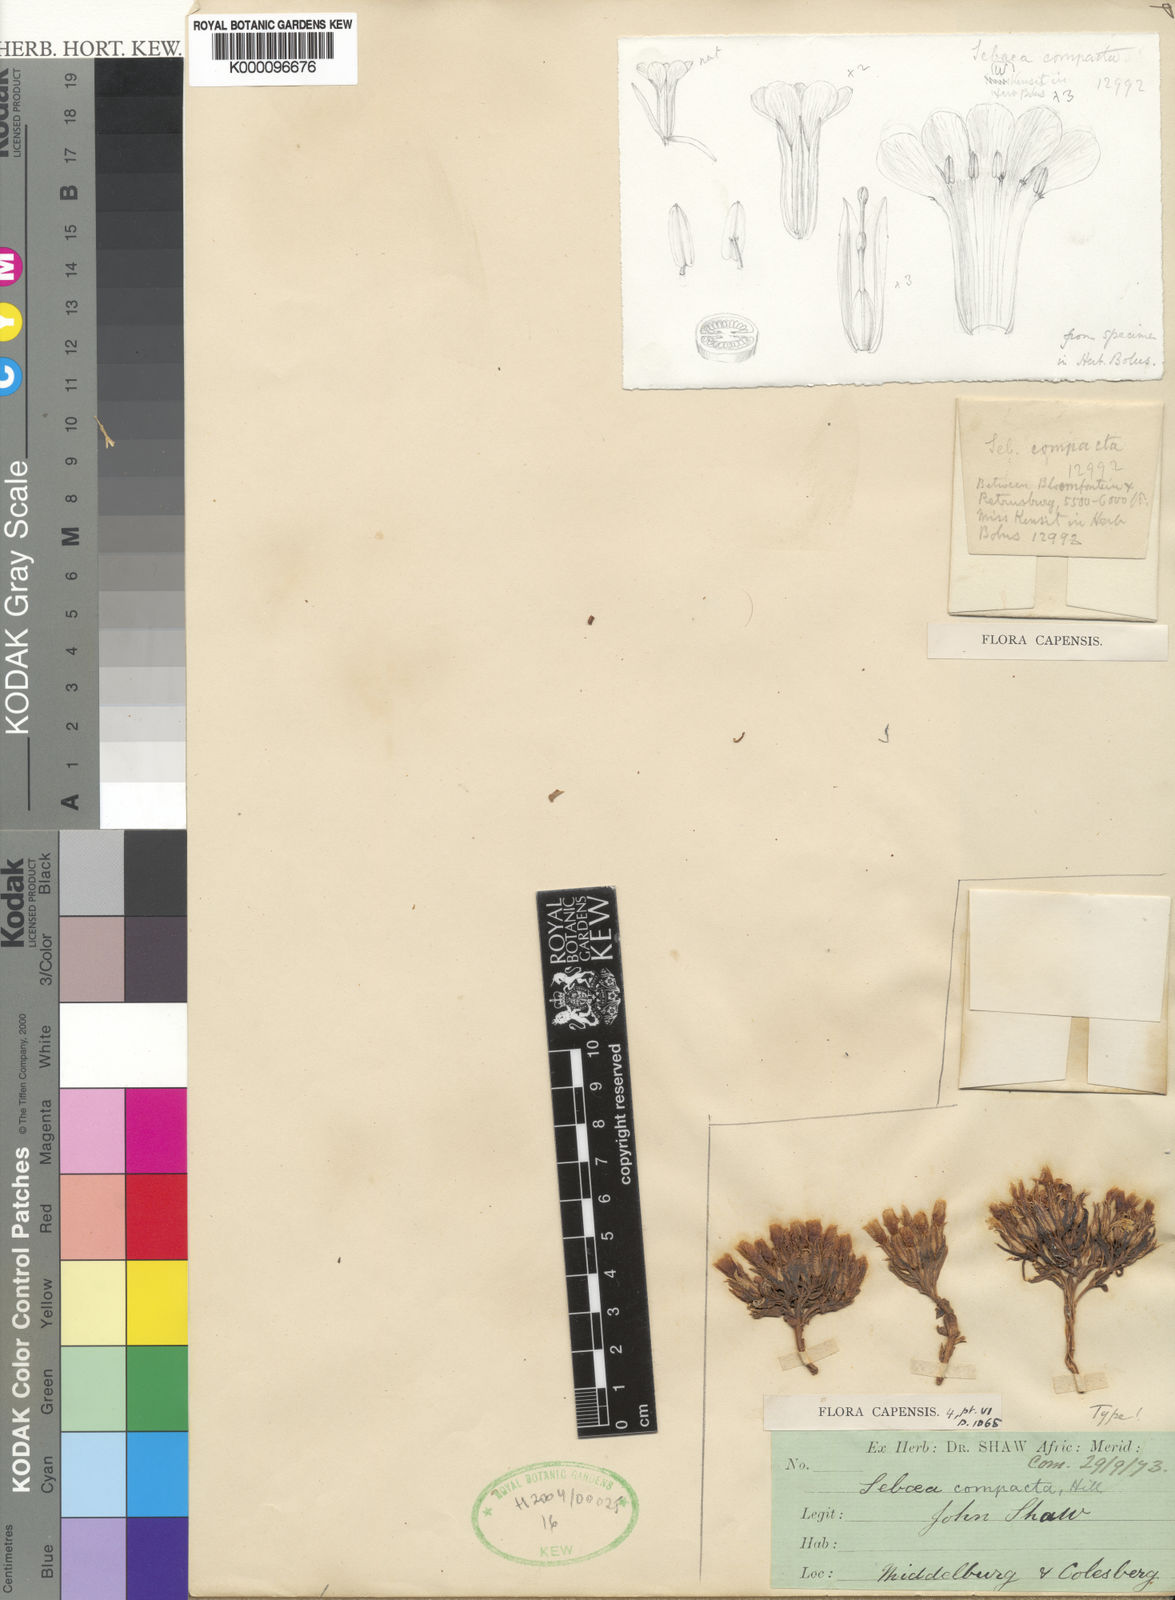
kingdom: Plantae
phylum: Tracheophyta
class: Magnoliopsida
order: Gentianales
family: Gentianaceae
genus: Sebaea
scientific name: Sebaea compacta
